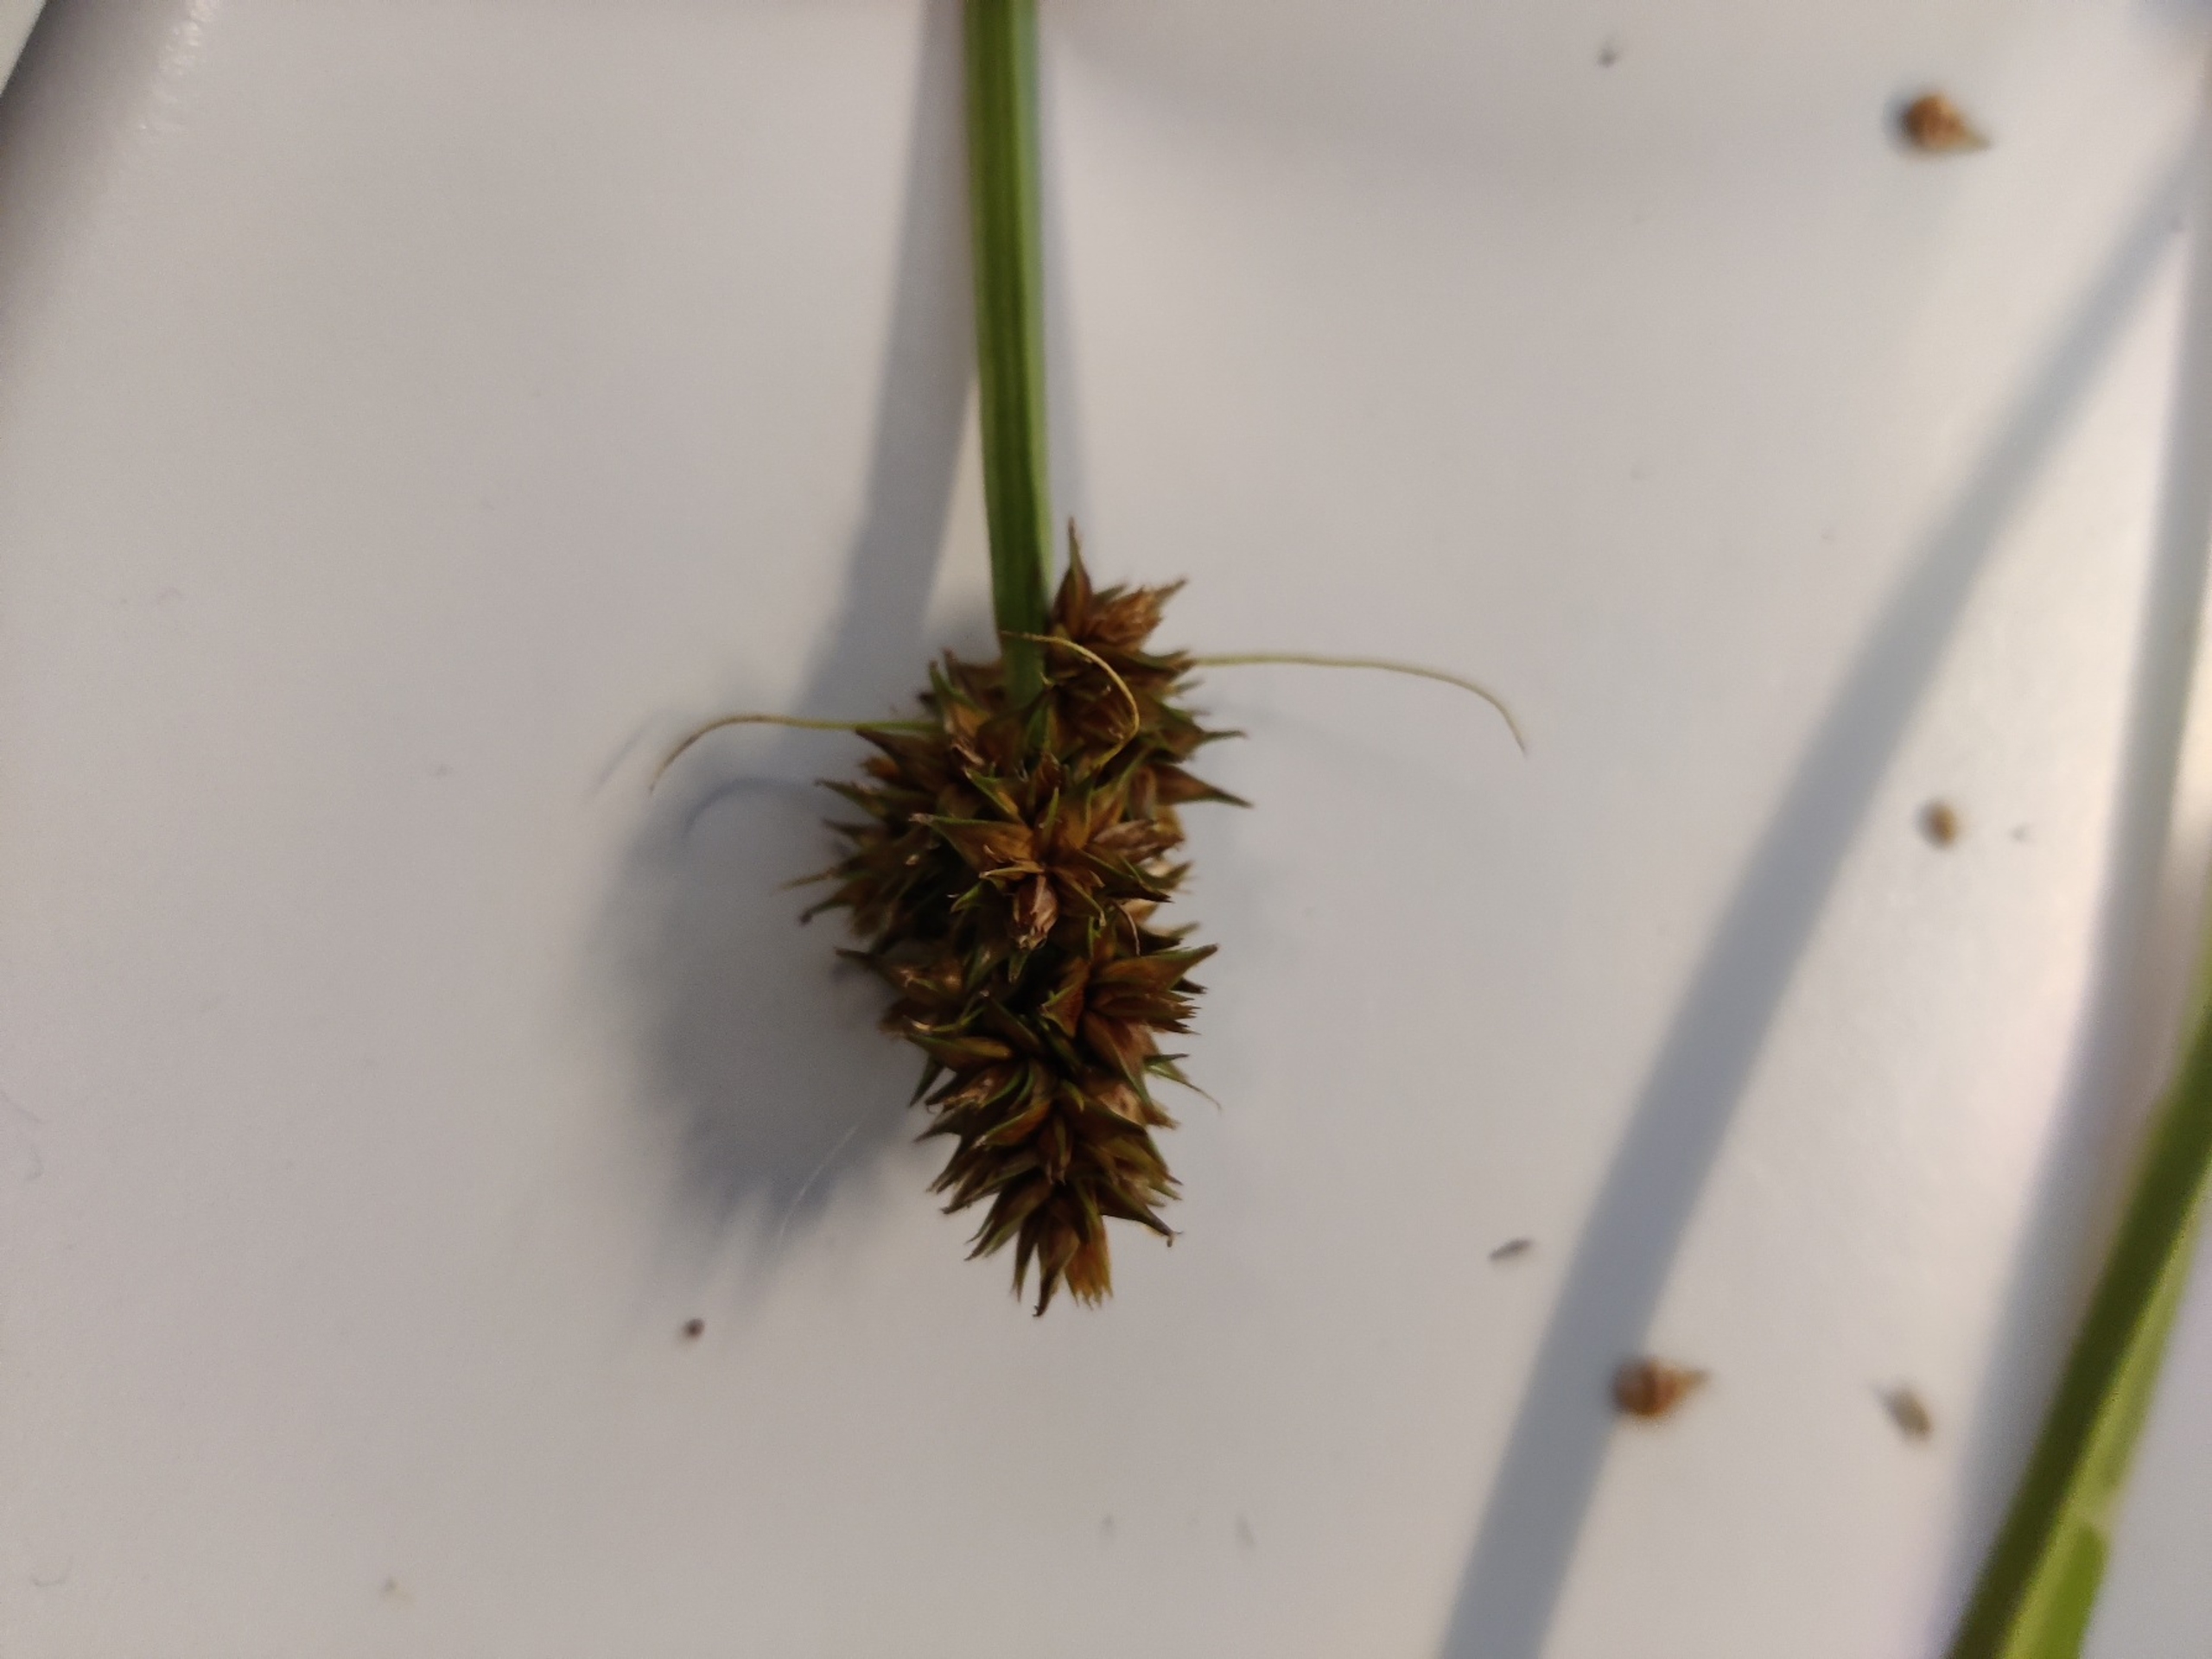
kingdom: Plantae
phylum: Tracheophyta
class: Liliopsida
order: Poales
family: Cyperaceae
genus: Carex
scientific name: Carex otrubae
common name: Sylt-star
